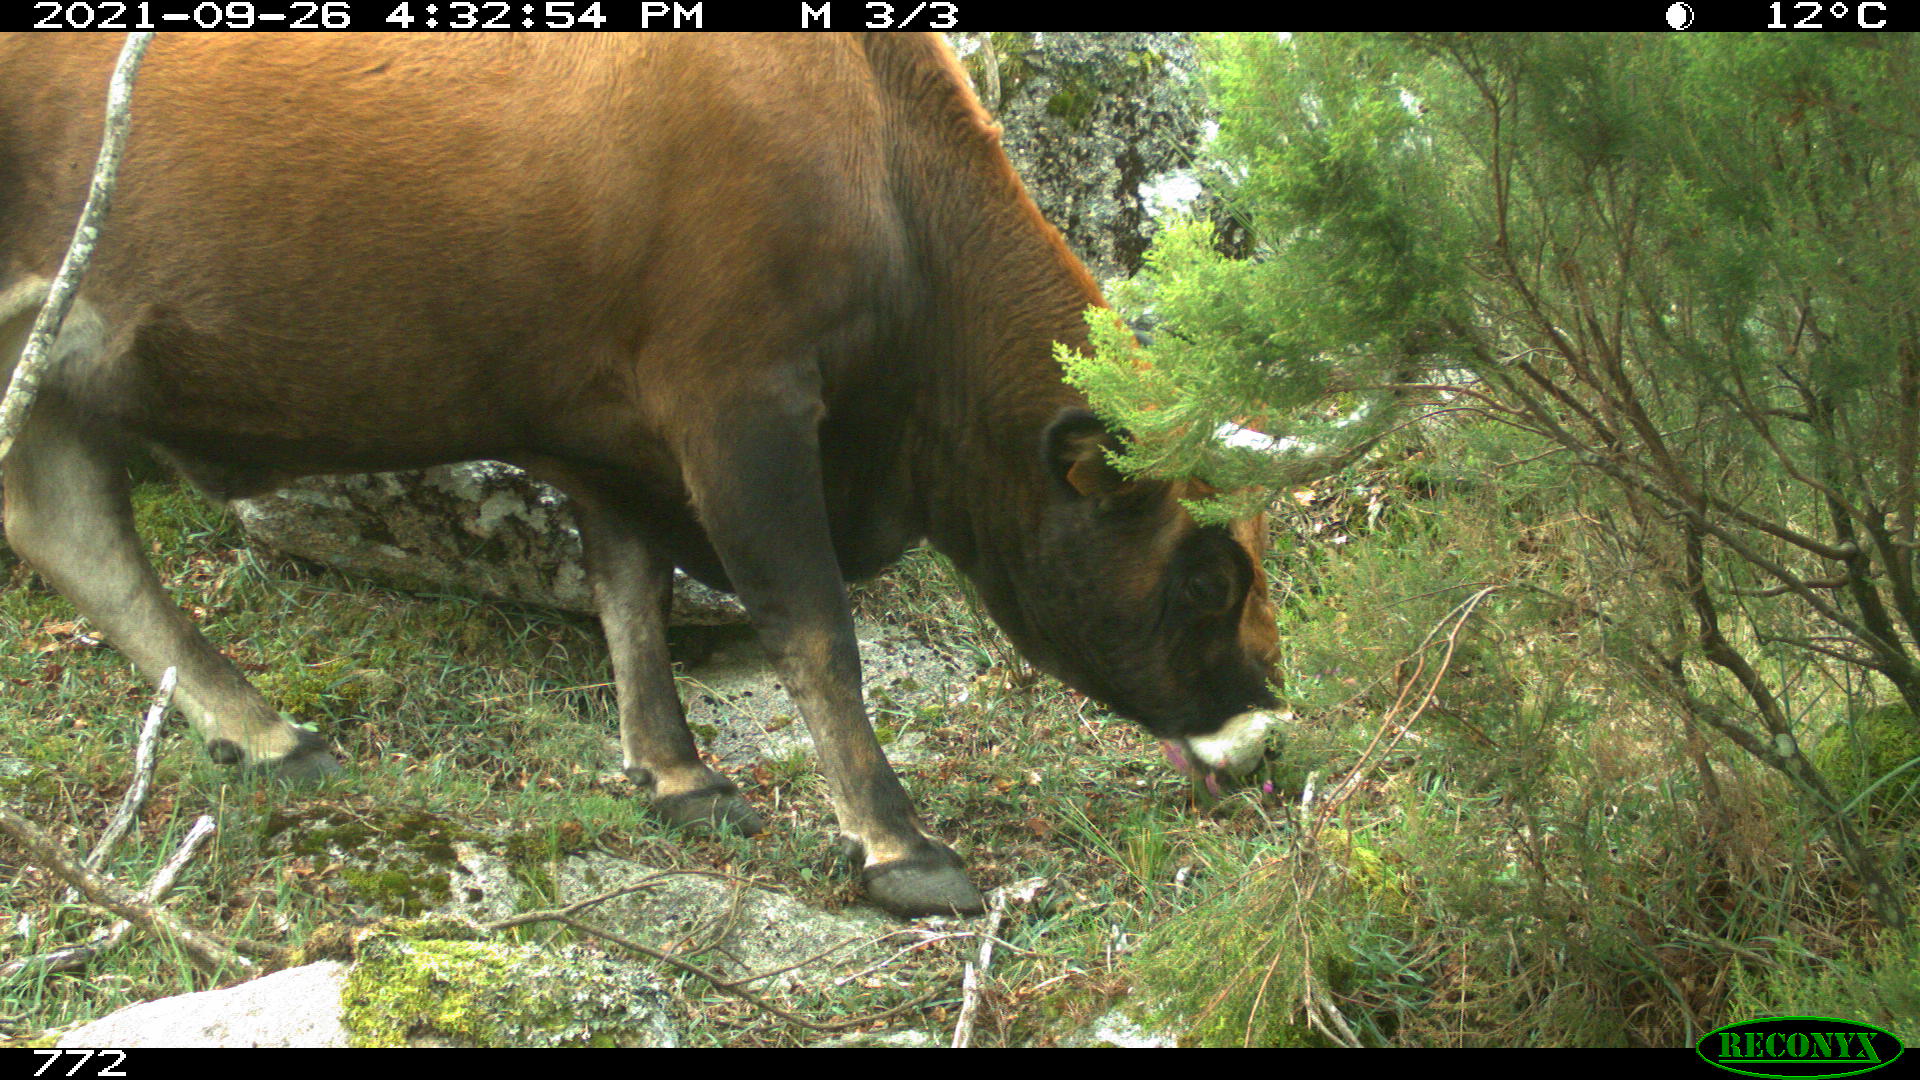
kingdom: Animalia
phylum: Chordata
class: Mammalia
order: Artiodactyla
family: Bovidae
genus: Bos
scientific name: Bos taurus
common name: Domesticated cattle
